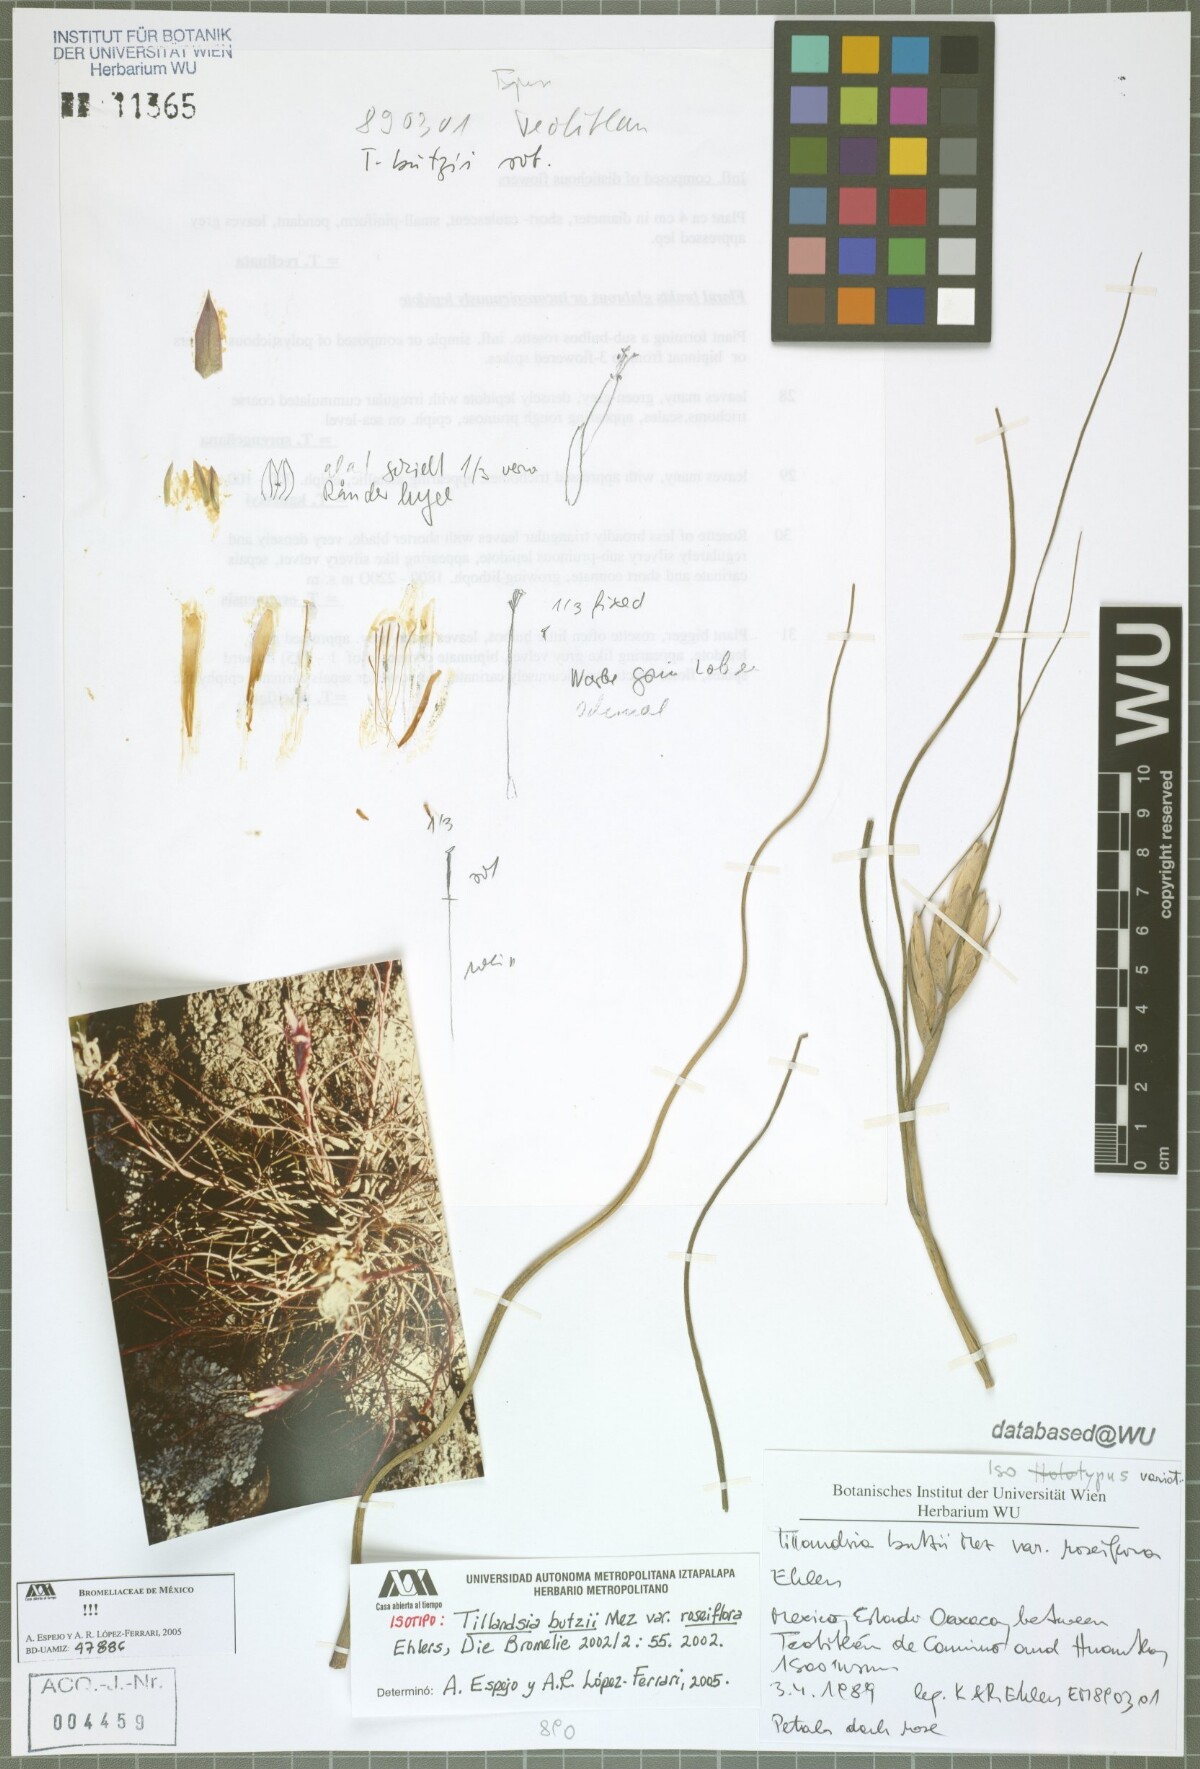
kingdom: Plantae
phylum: Tracheophyta
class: Liliopsida
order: Poales
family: Bromeliaceae
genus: Tillandsia
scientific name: Tillandsia butzii
